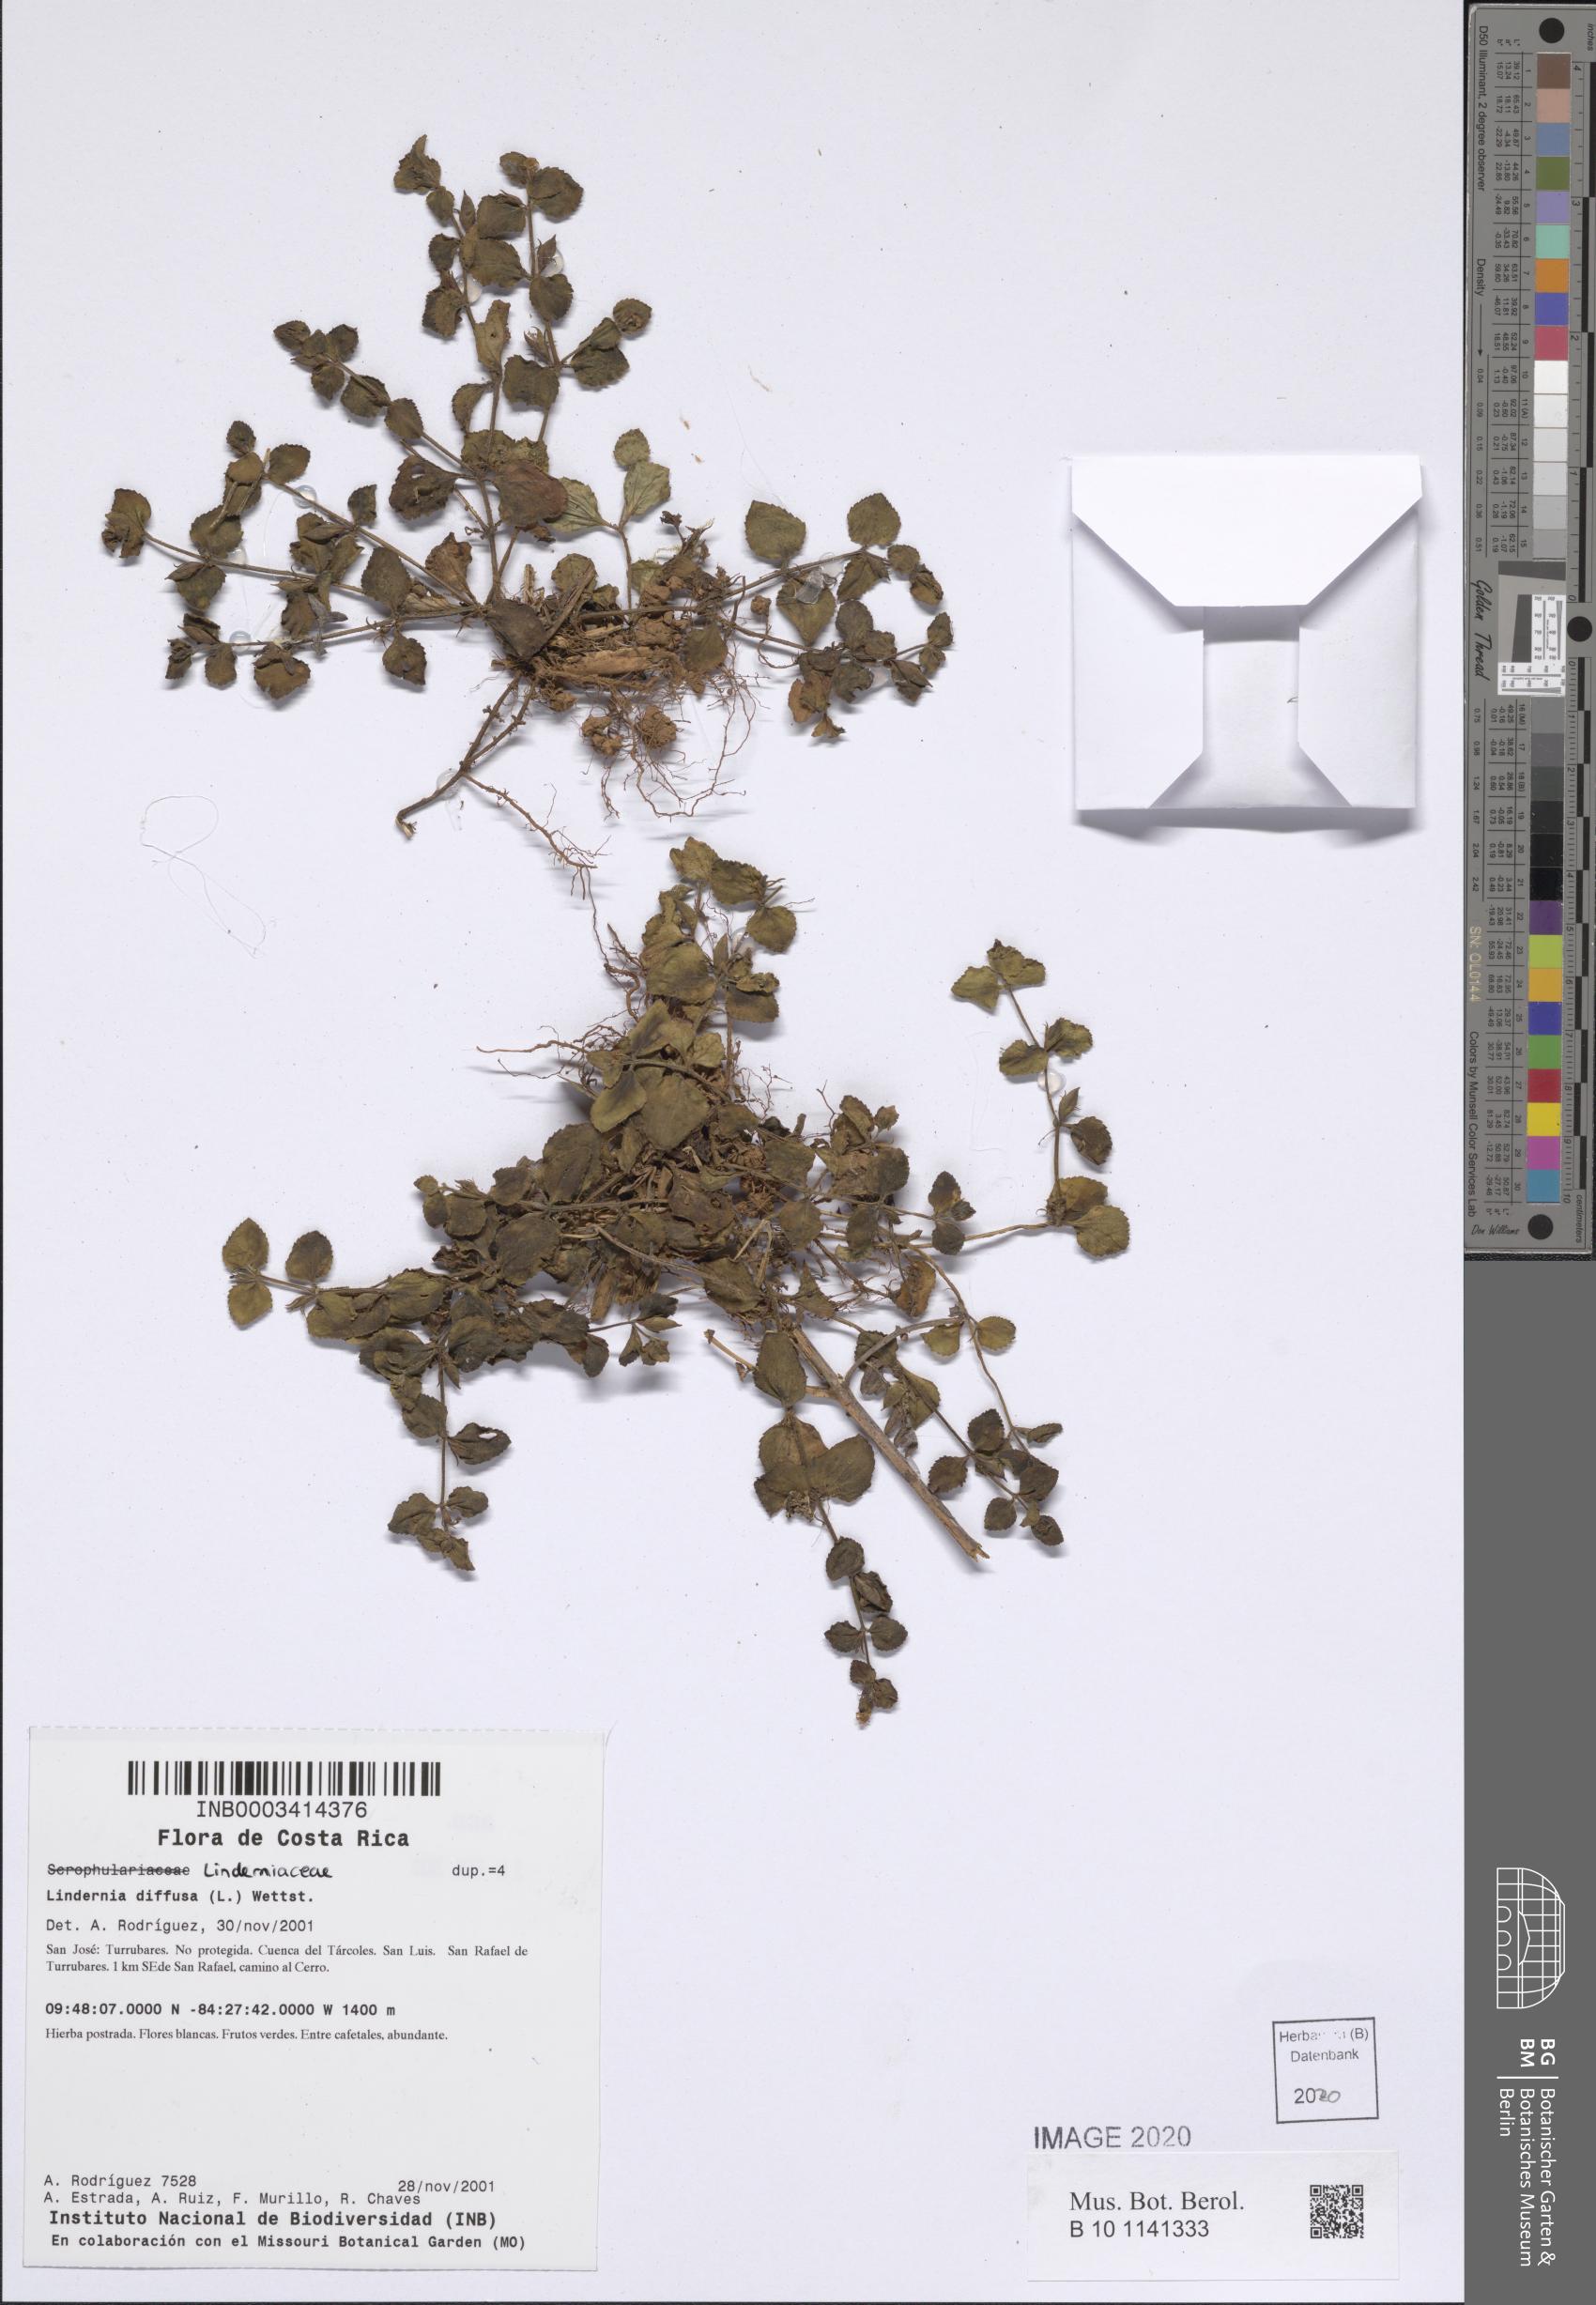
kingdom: Plantae
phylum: Tracheophyta
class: Magnoliopsida
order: Lamiales
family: Linderniaceae
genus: Vandellia
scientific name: Vandellia diffusa
